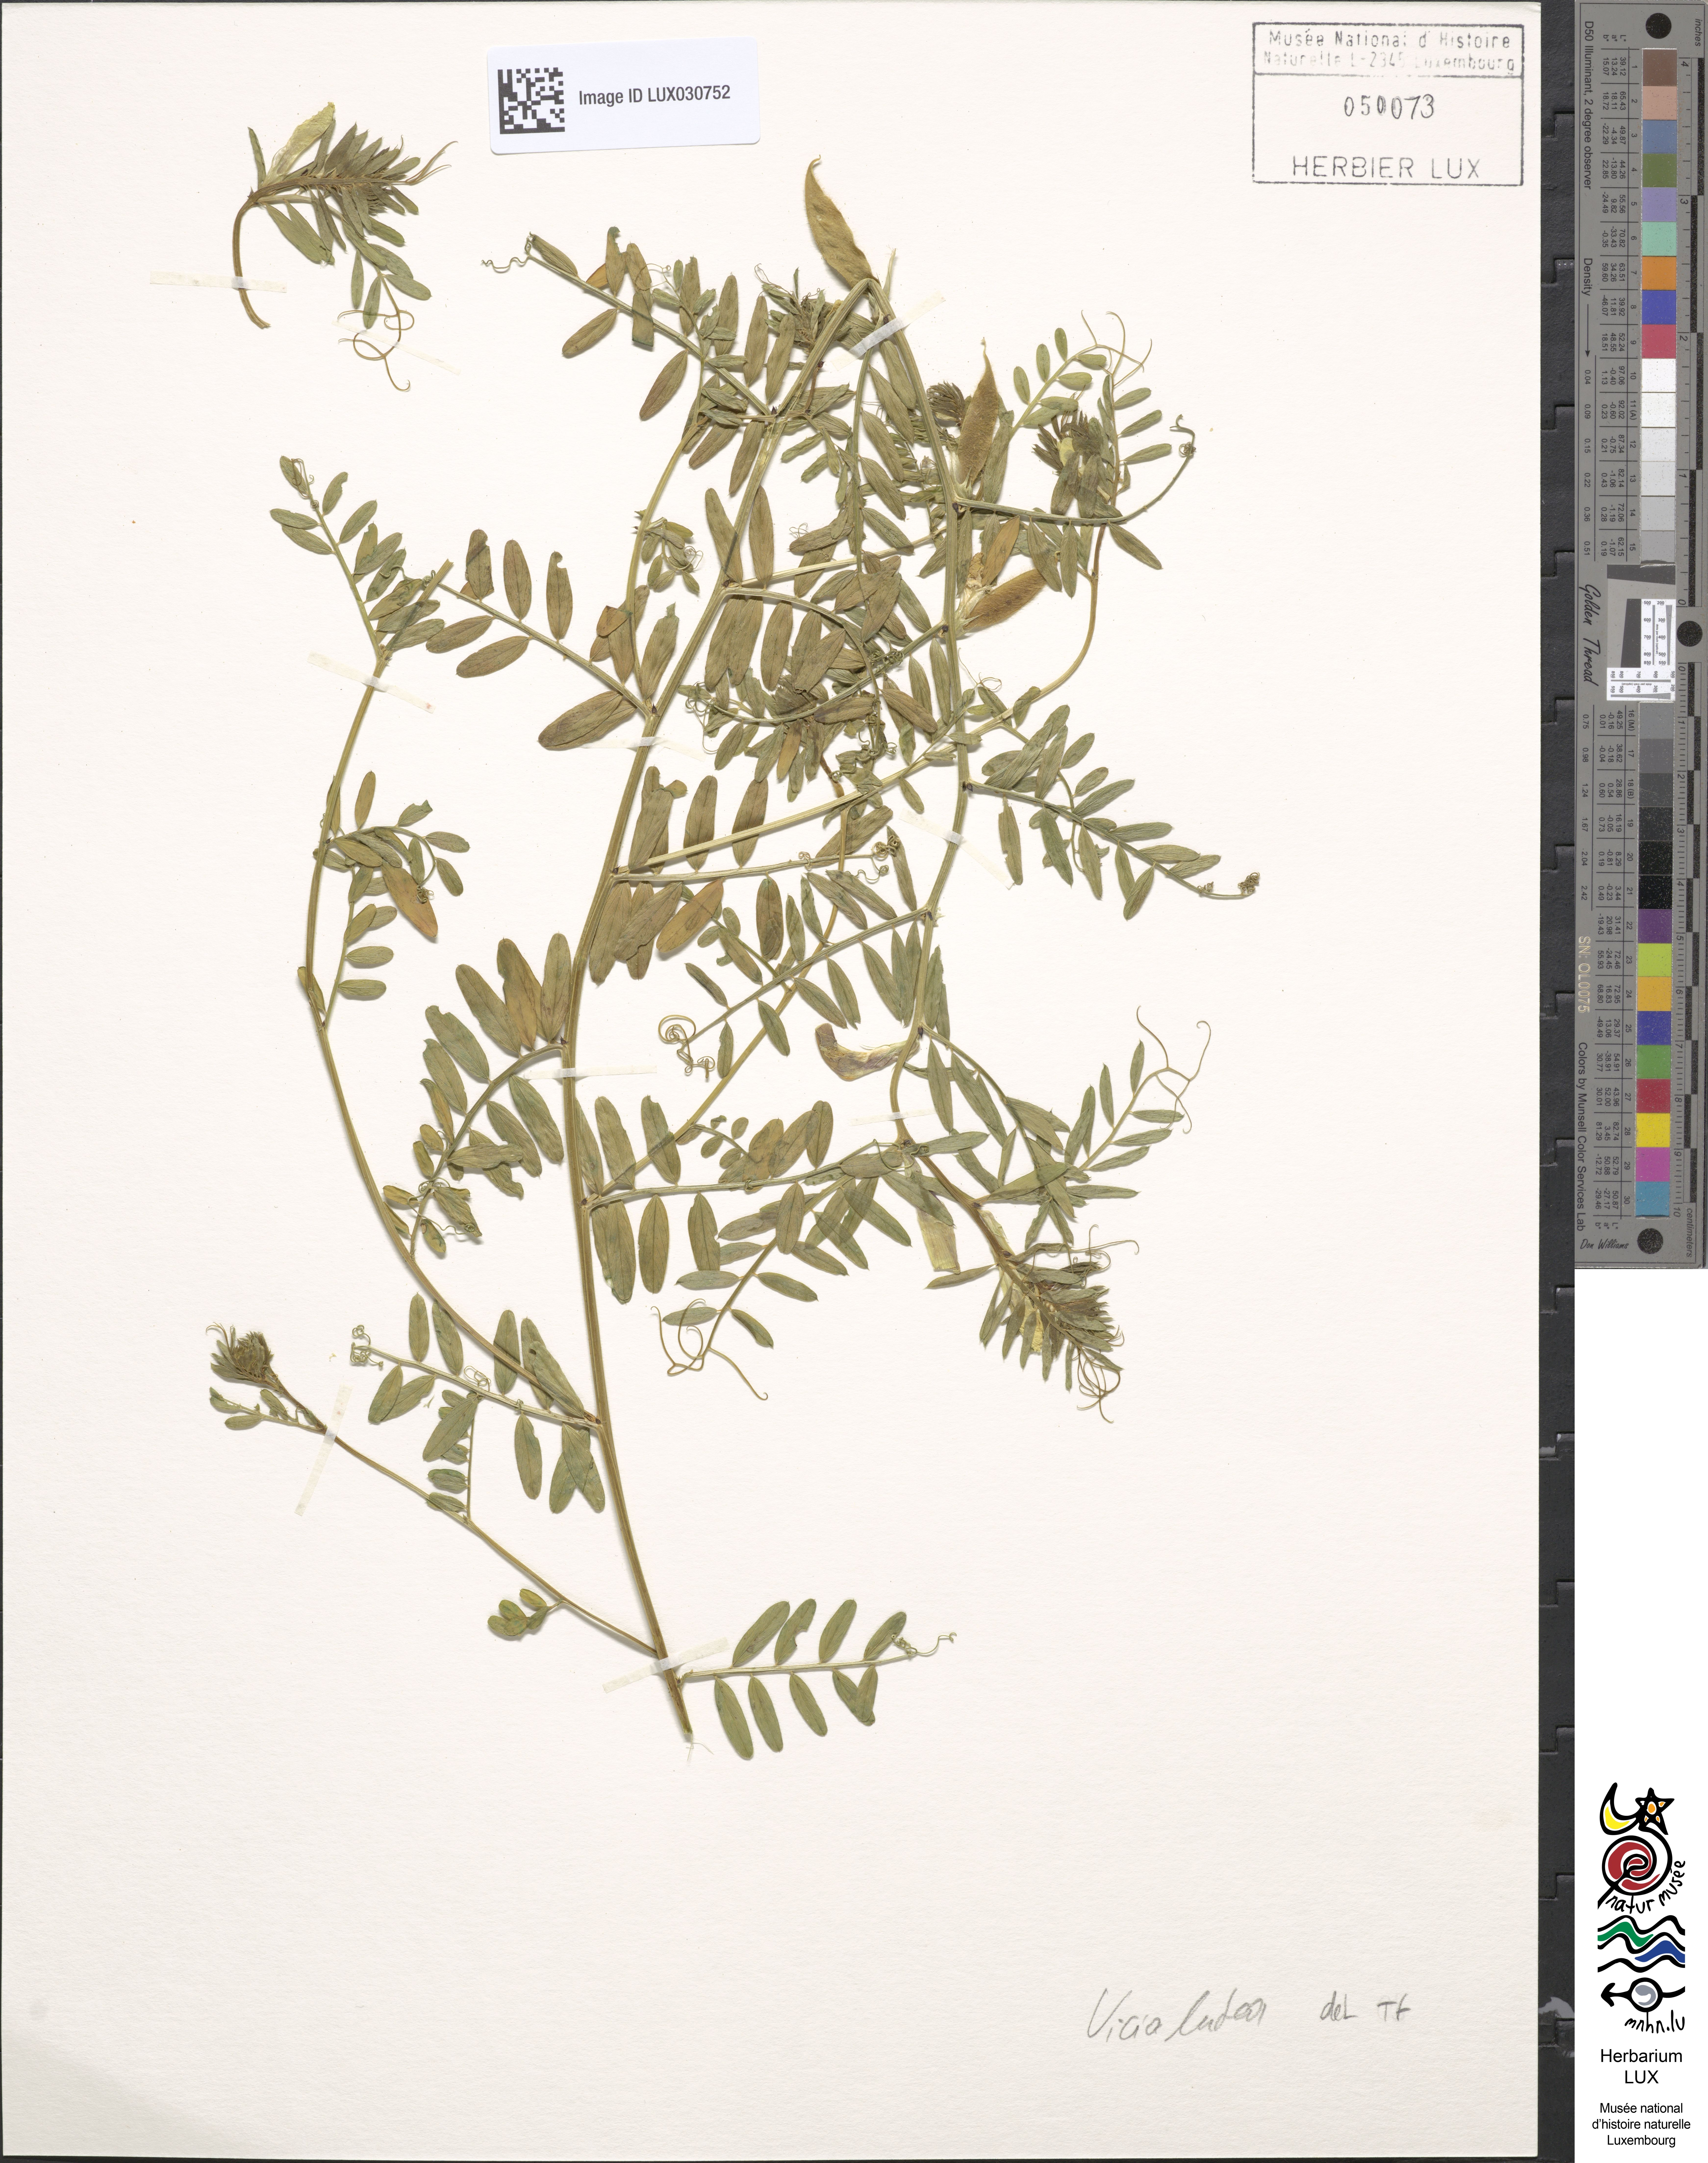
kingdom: Plantae
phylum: Tracheophyta
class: Magnoliopsida
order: Fabales
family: Fabaceae
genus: Vicia
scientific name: Vicia lutea
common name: Smooth yellow vetch
